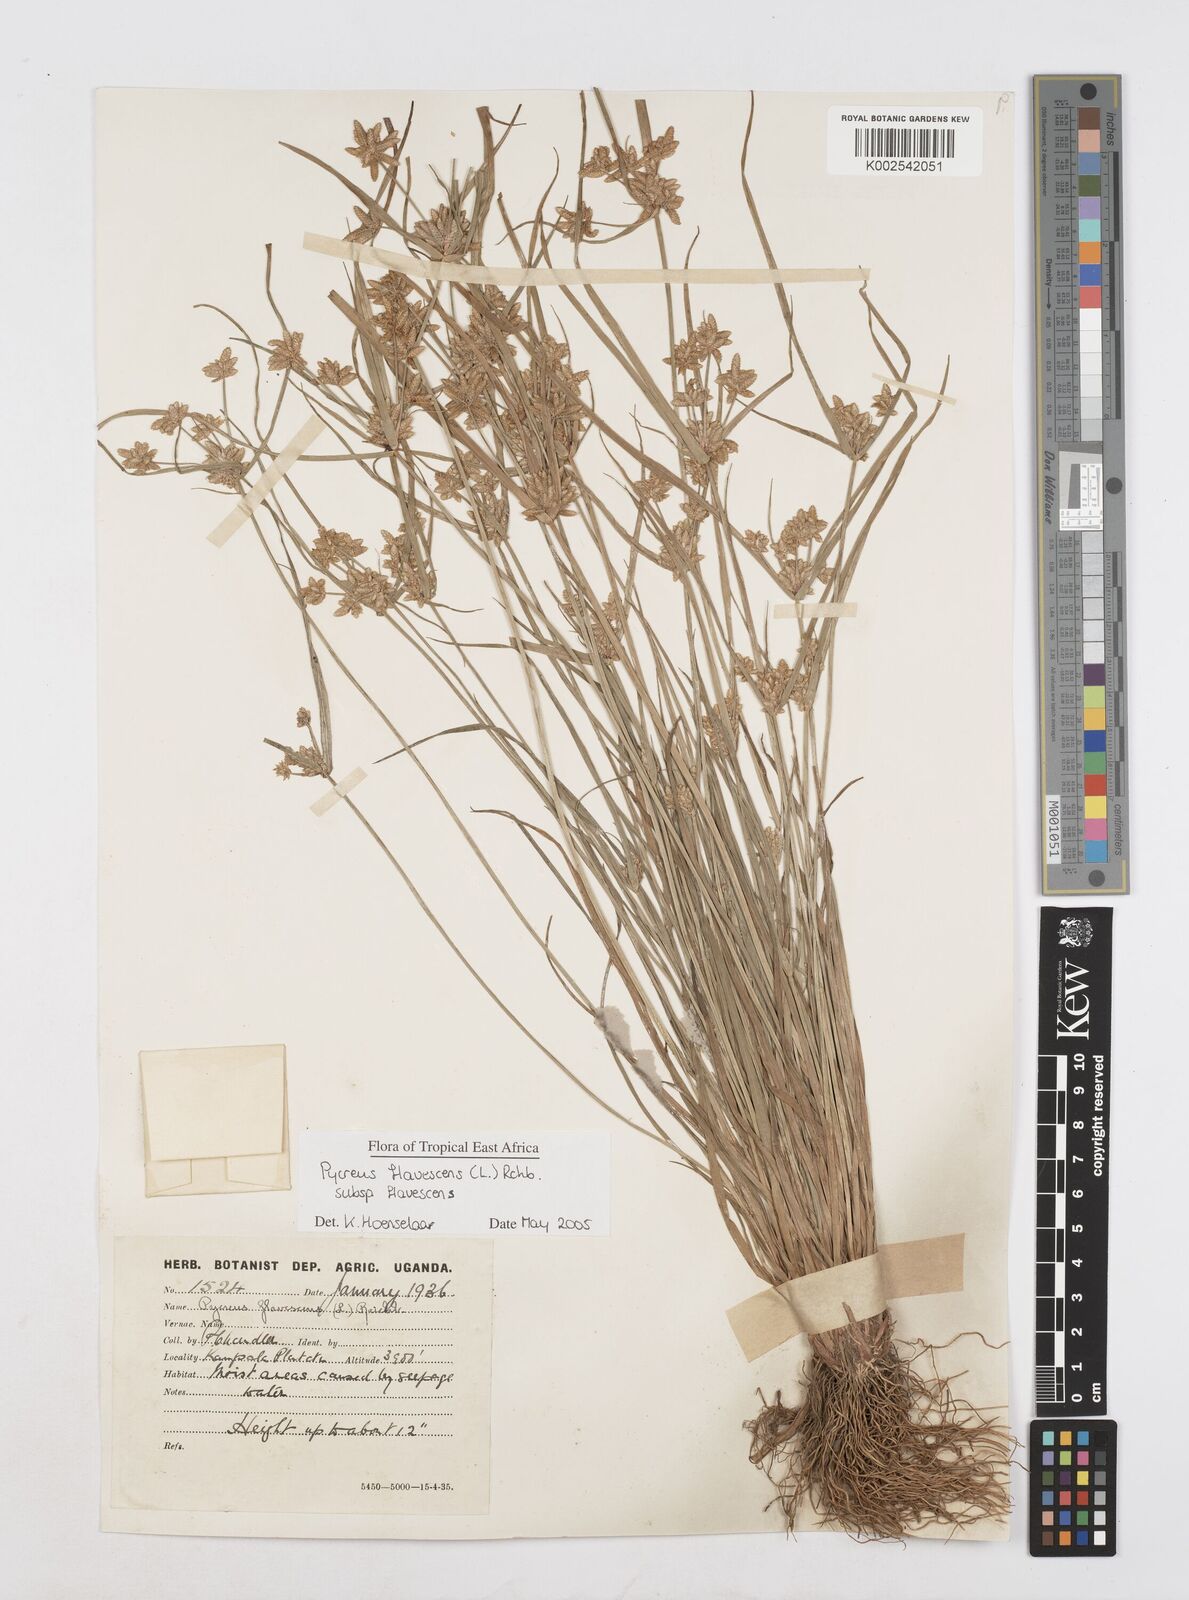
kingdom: Plantae
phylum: Tracheophyta
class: Liliopsida
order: Poales
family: Cyperaceae
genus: Cyperus
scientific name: Cyperus flavescens
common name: Yellow galingale
